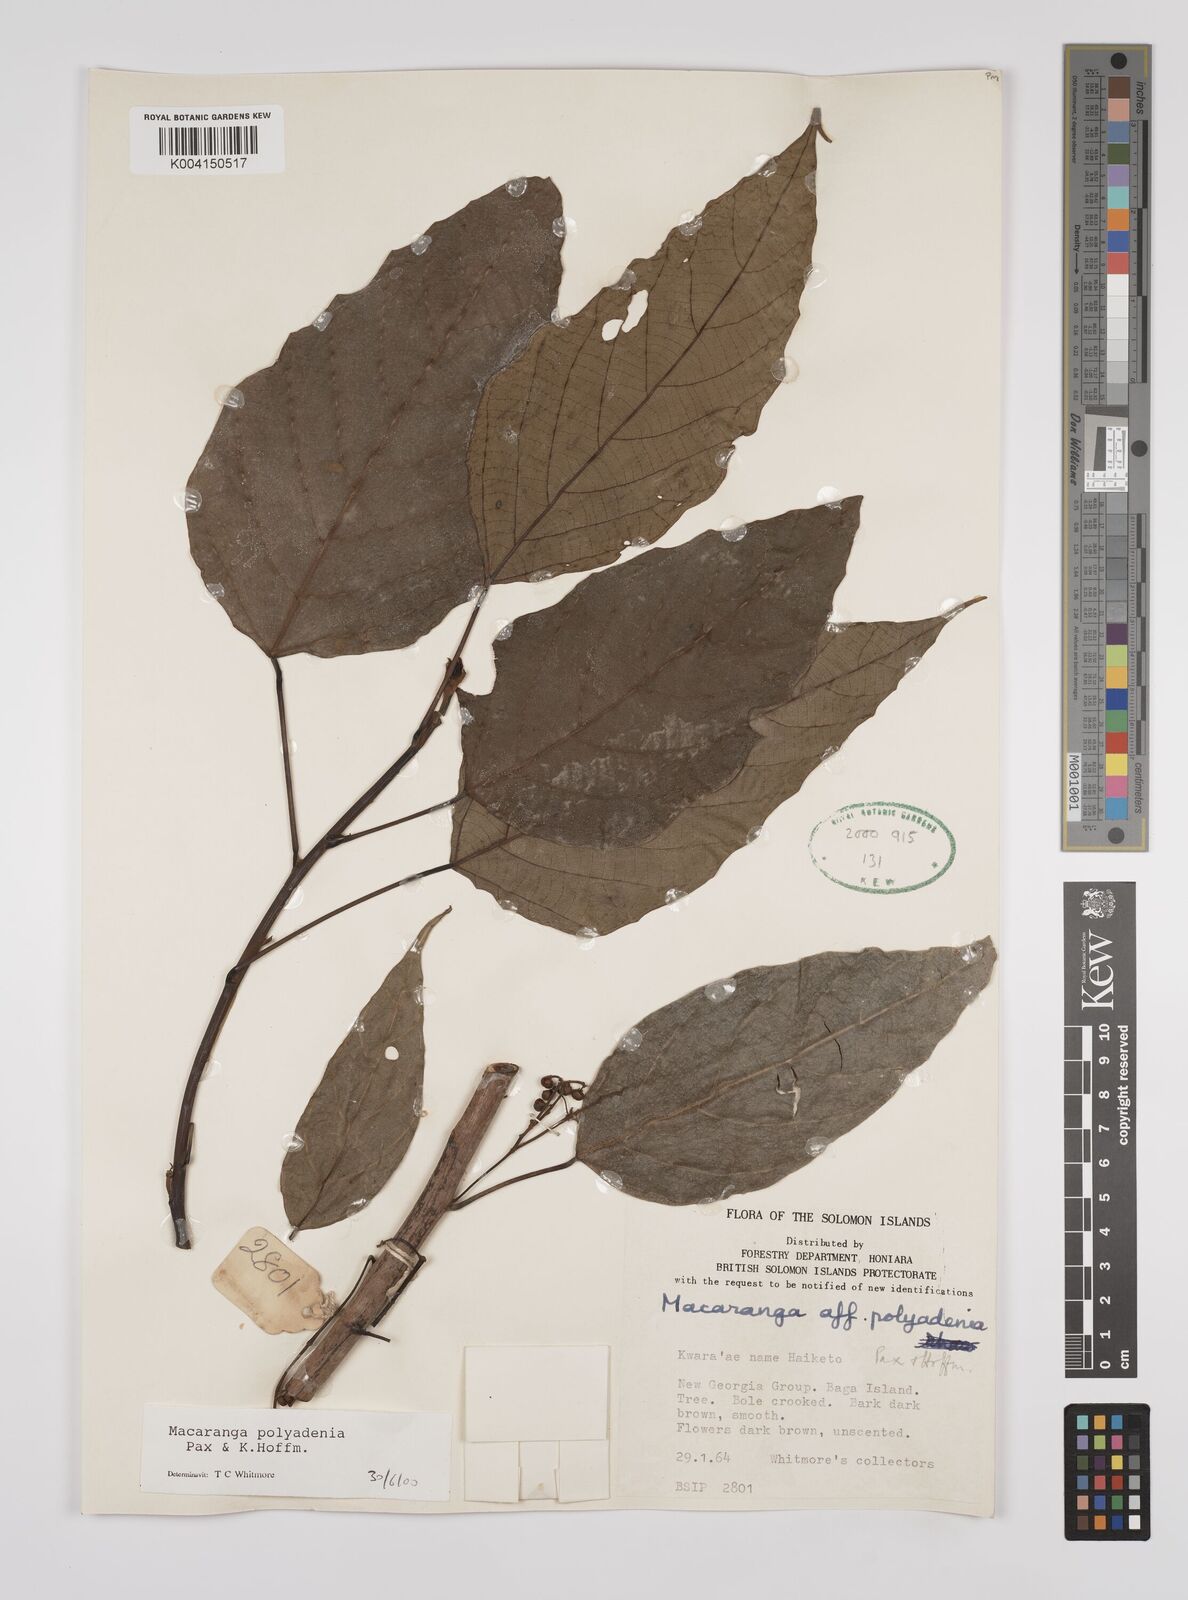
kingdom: Plantae
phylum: Tracheophyta
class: Magnoliopsida
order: Malpighiales
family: Euphorbiaceae
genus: Macaranga
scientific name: Macaranga polyadenia
